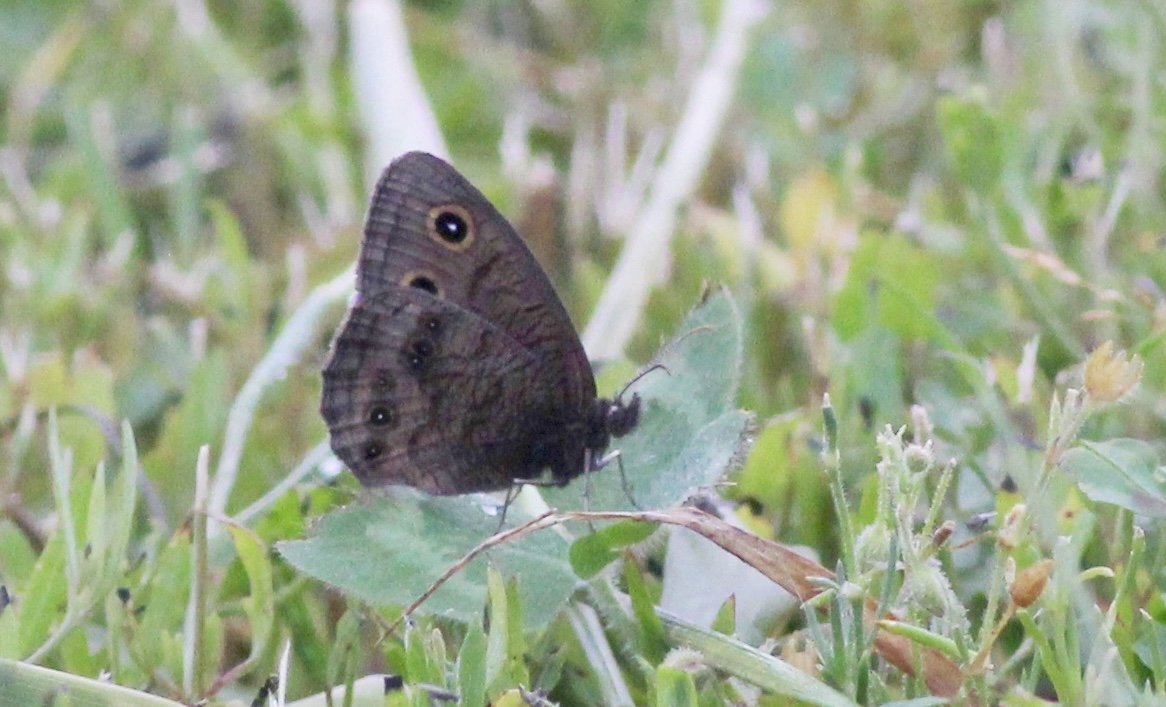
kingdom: Animalia
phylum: Arthropoda
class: Insecta
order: Lepidoptera
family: Nymphalidae
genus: Cercyonis
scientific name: Cercyonis pegala
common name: Common Wood-Nymph
